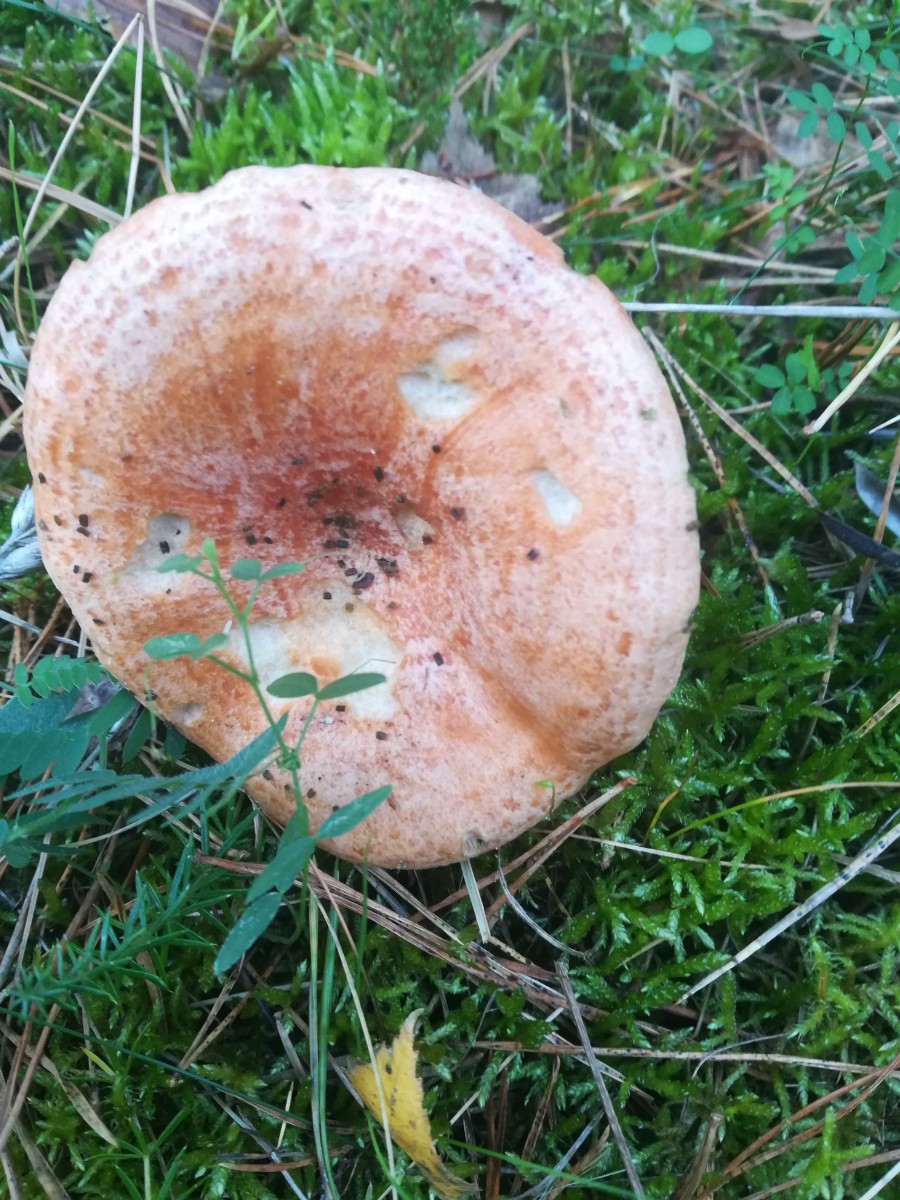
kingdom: Fungi
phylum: Basidiomycota
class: Agaricomycetes
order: Russulales
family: Russulaceae
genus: Lactarius
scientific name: Lactarius deliciosus
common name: velsmagende mælkehat
